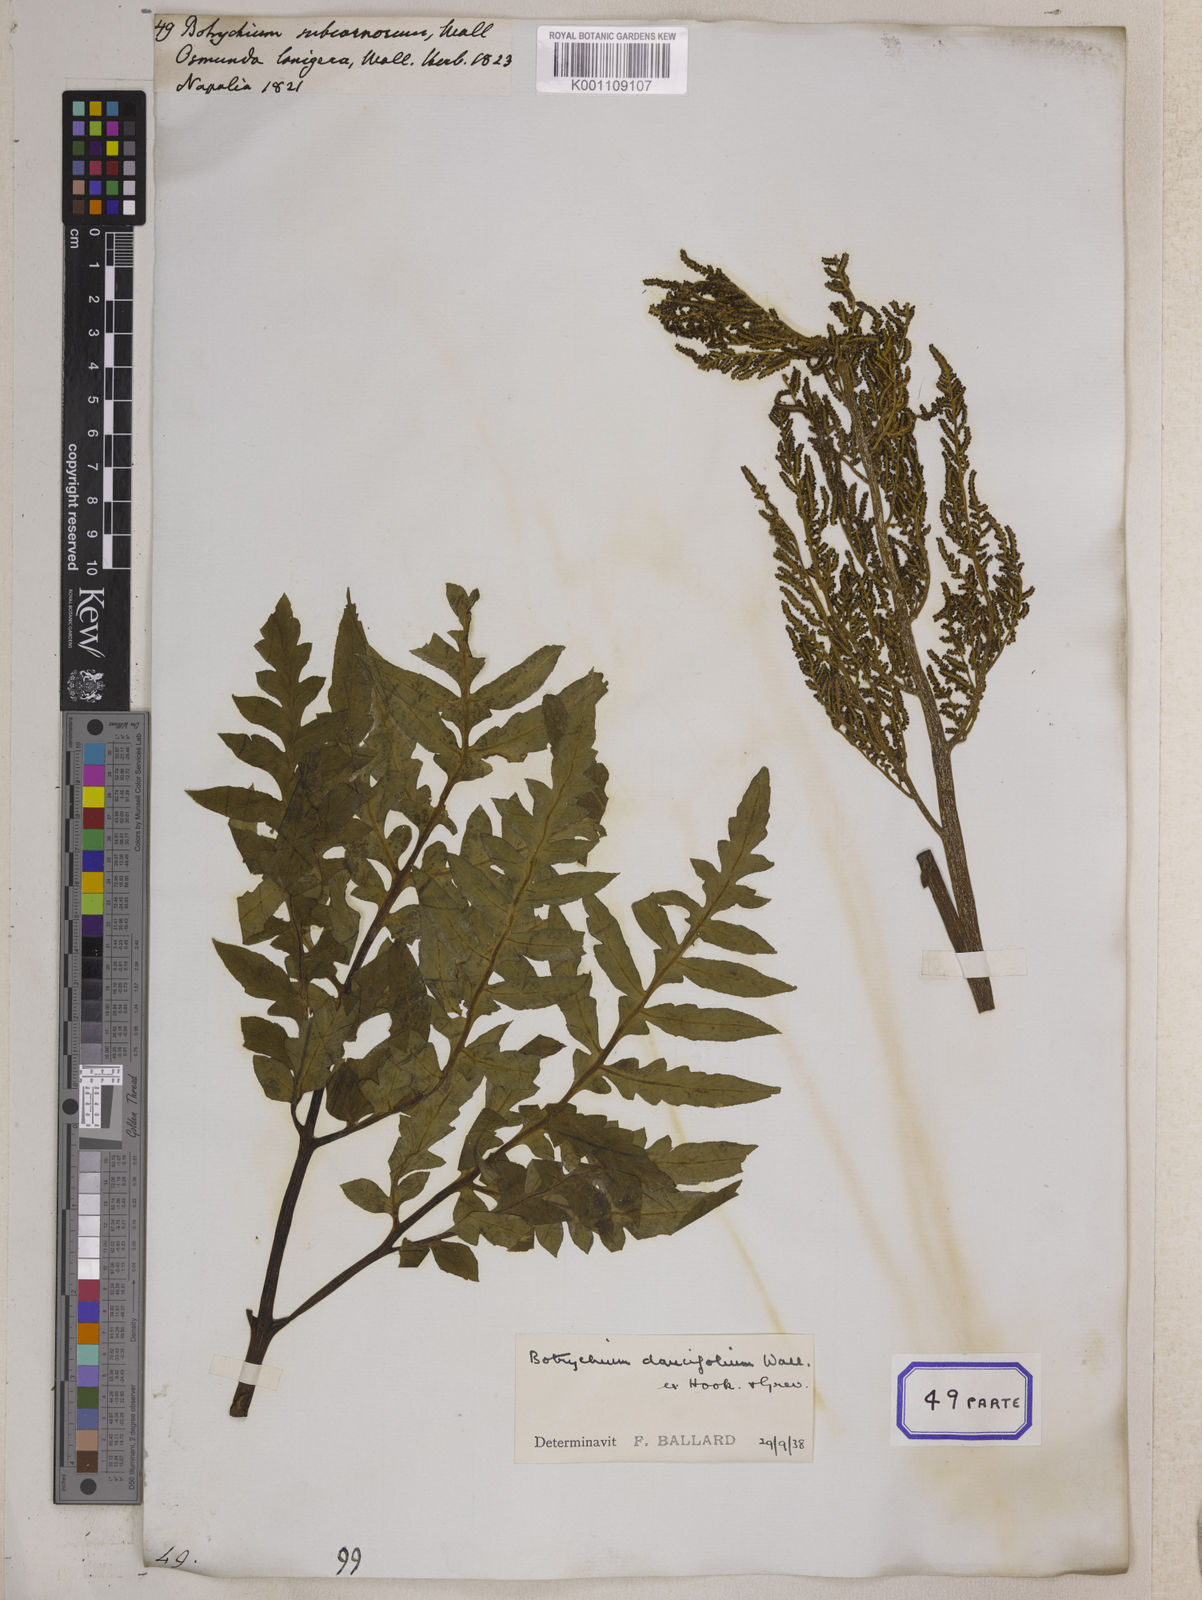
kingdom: Plantae
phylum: Tracheophyta
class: Polypodiopsida
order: Ophioglossales
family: Ophioglossaceae
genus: Sceptridium
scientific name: Sceptridium daucifolium
